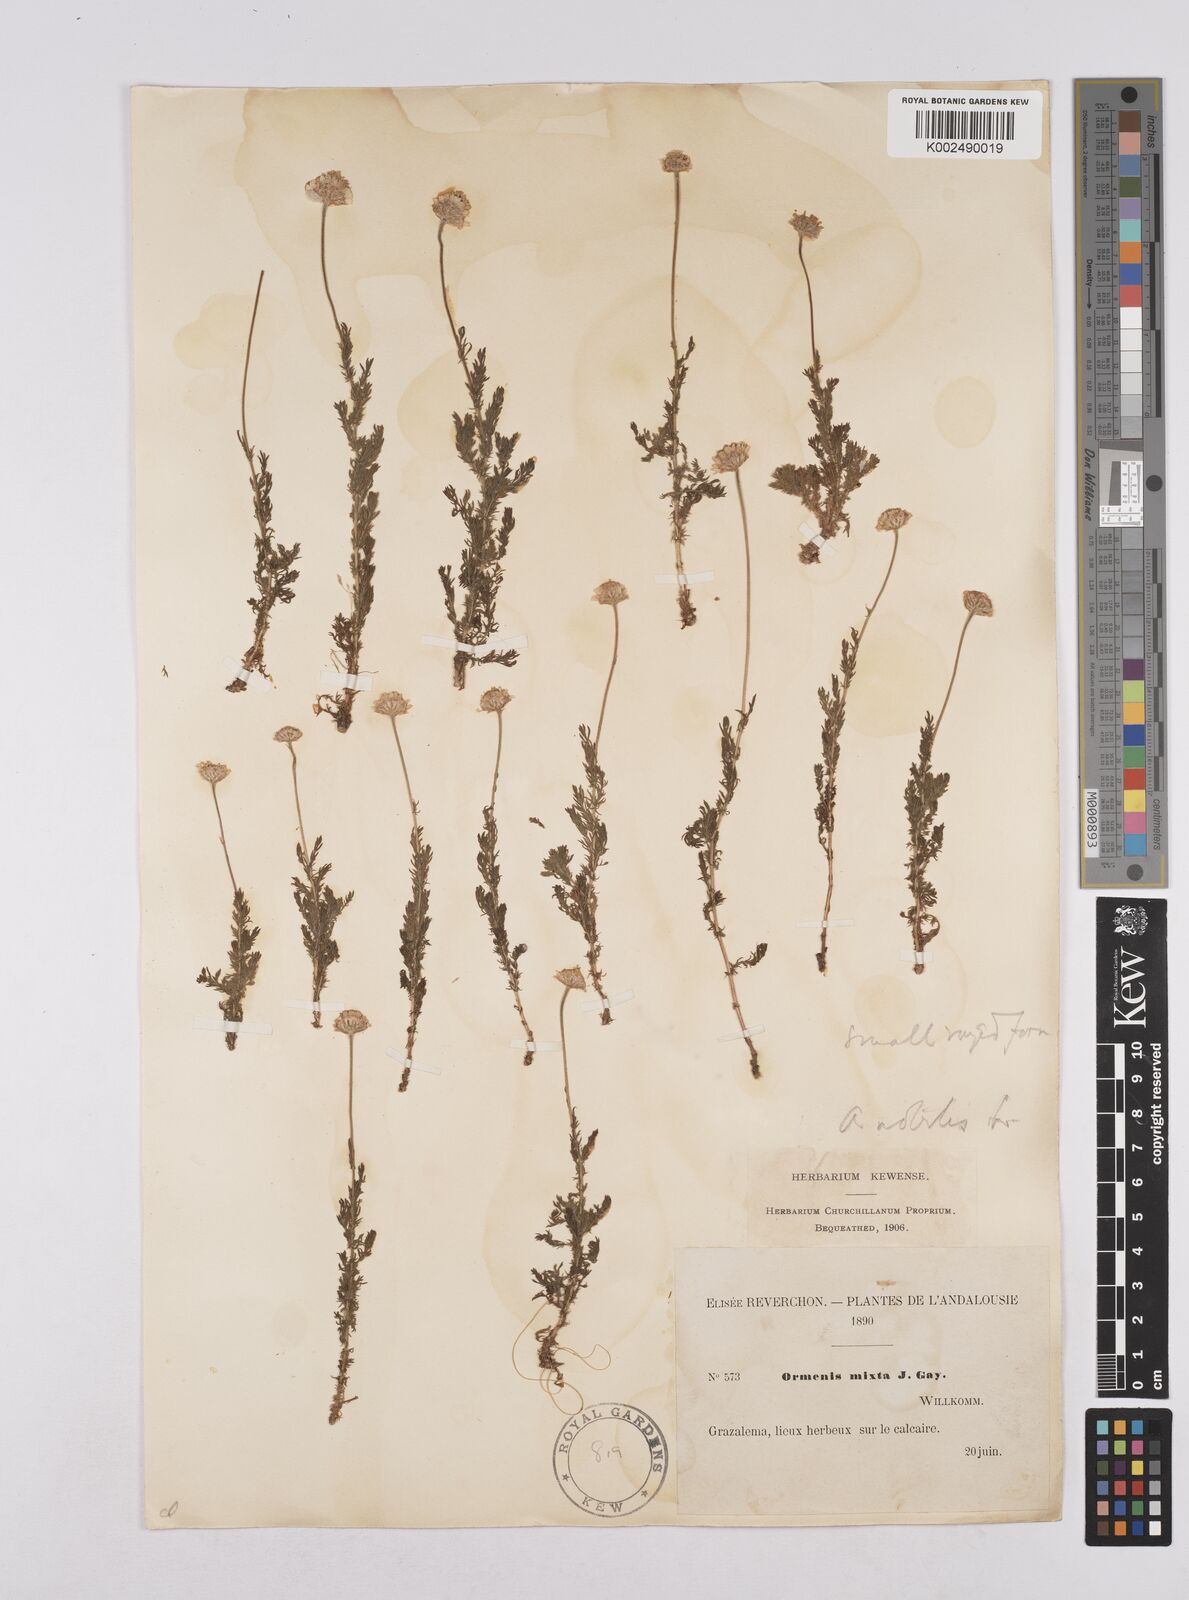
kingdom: Plantae
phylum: Tracheophyta
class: Magnoliopsida
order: Asterales
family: Asteraceae
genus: Chamaemelum
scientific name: Chamaemelum
